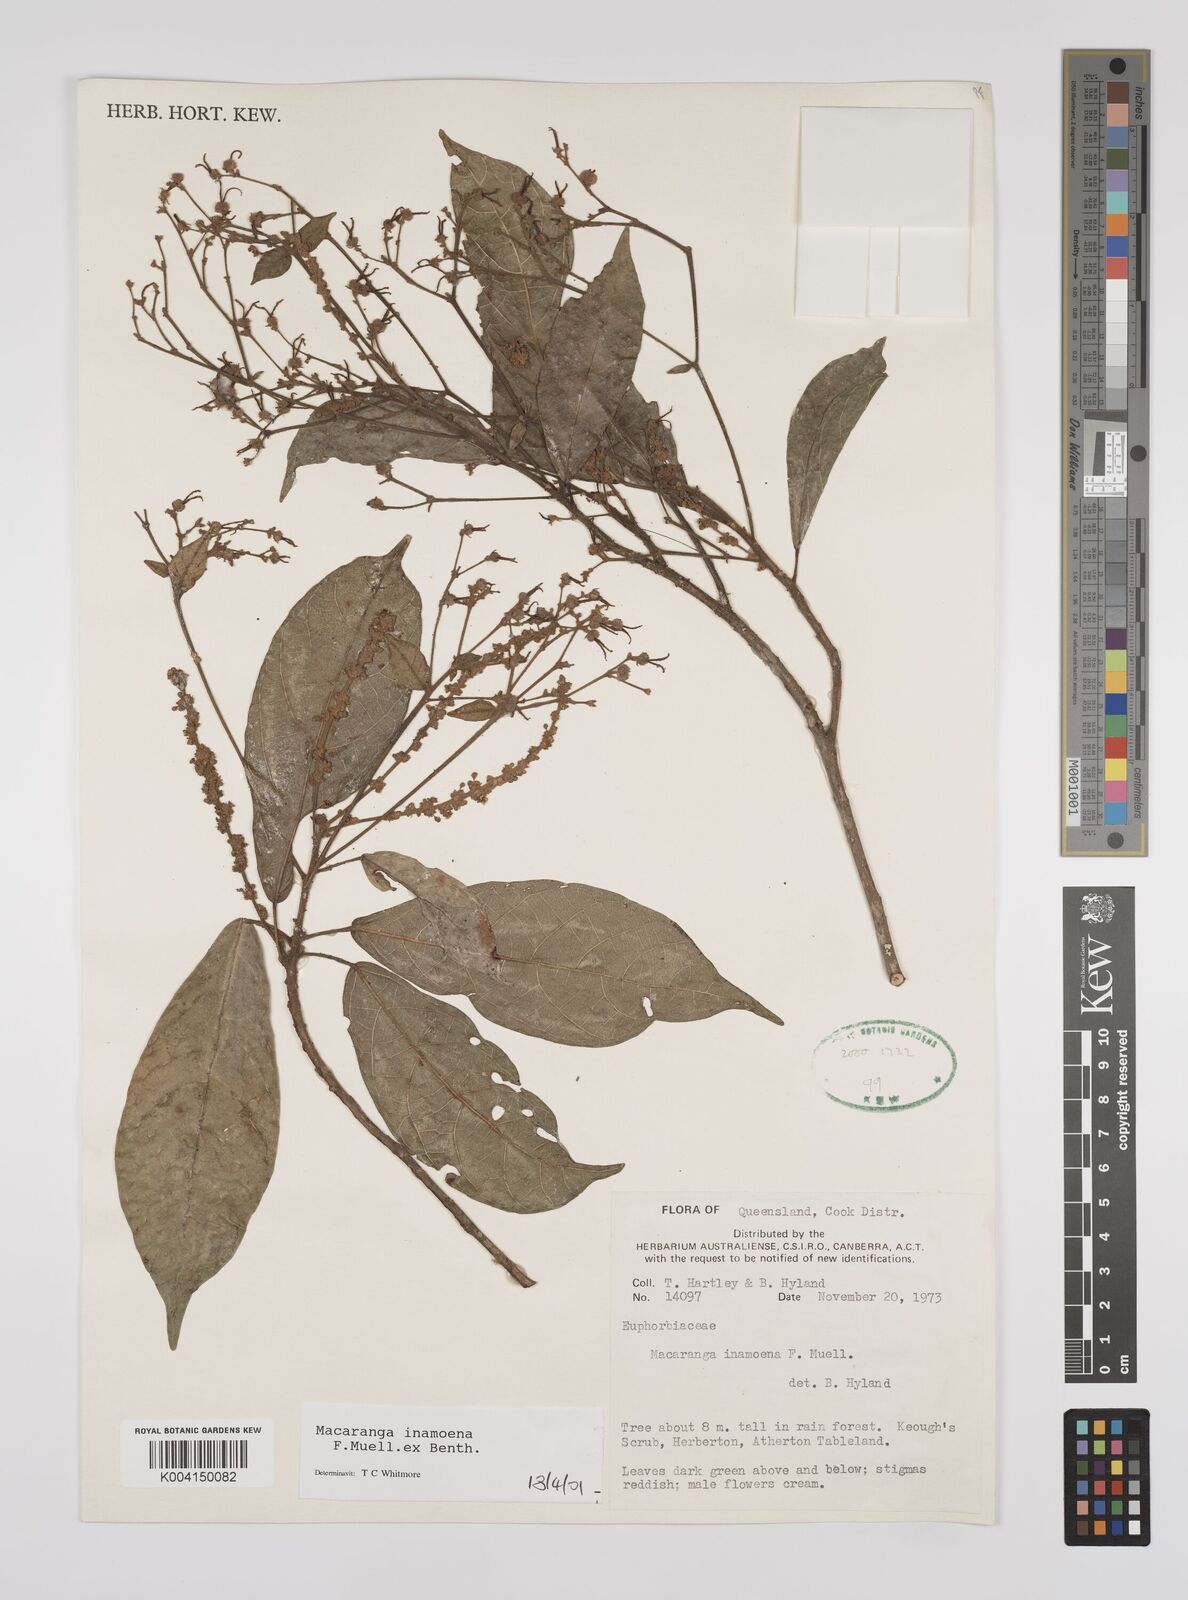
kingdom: Plantae
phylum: Tracheophyta
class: Magnoliopsida
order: Malpighiales
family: Euphorbiaceae
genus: Macaranga
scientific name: Macaranga inamoena
